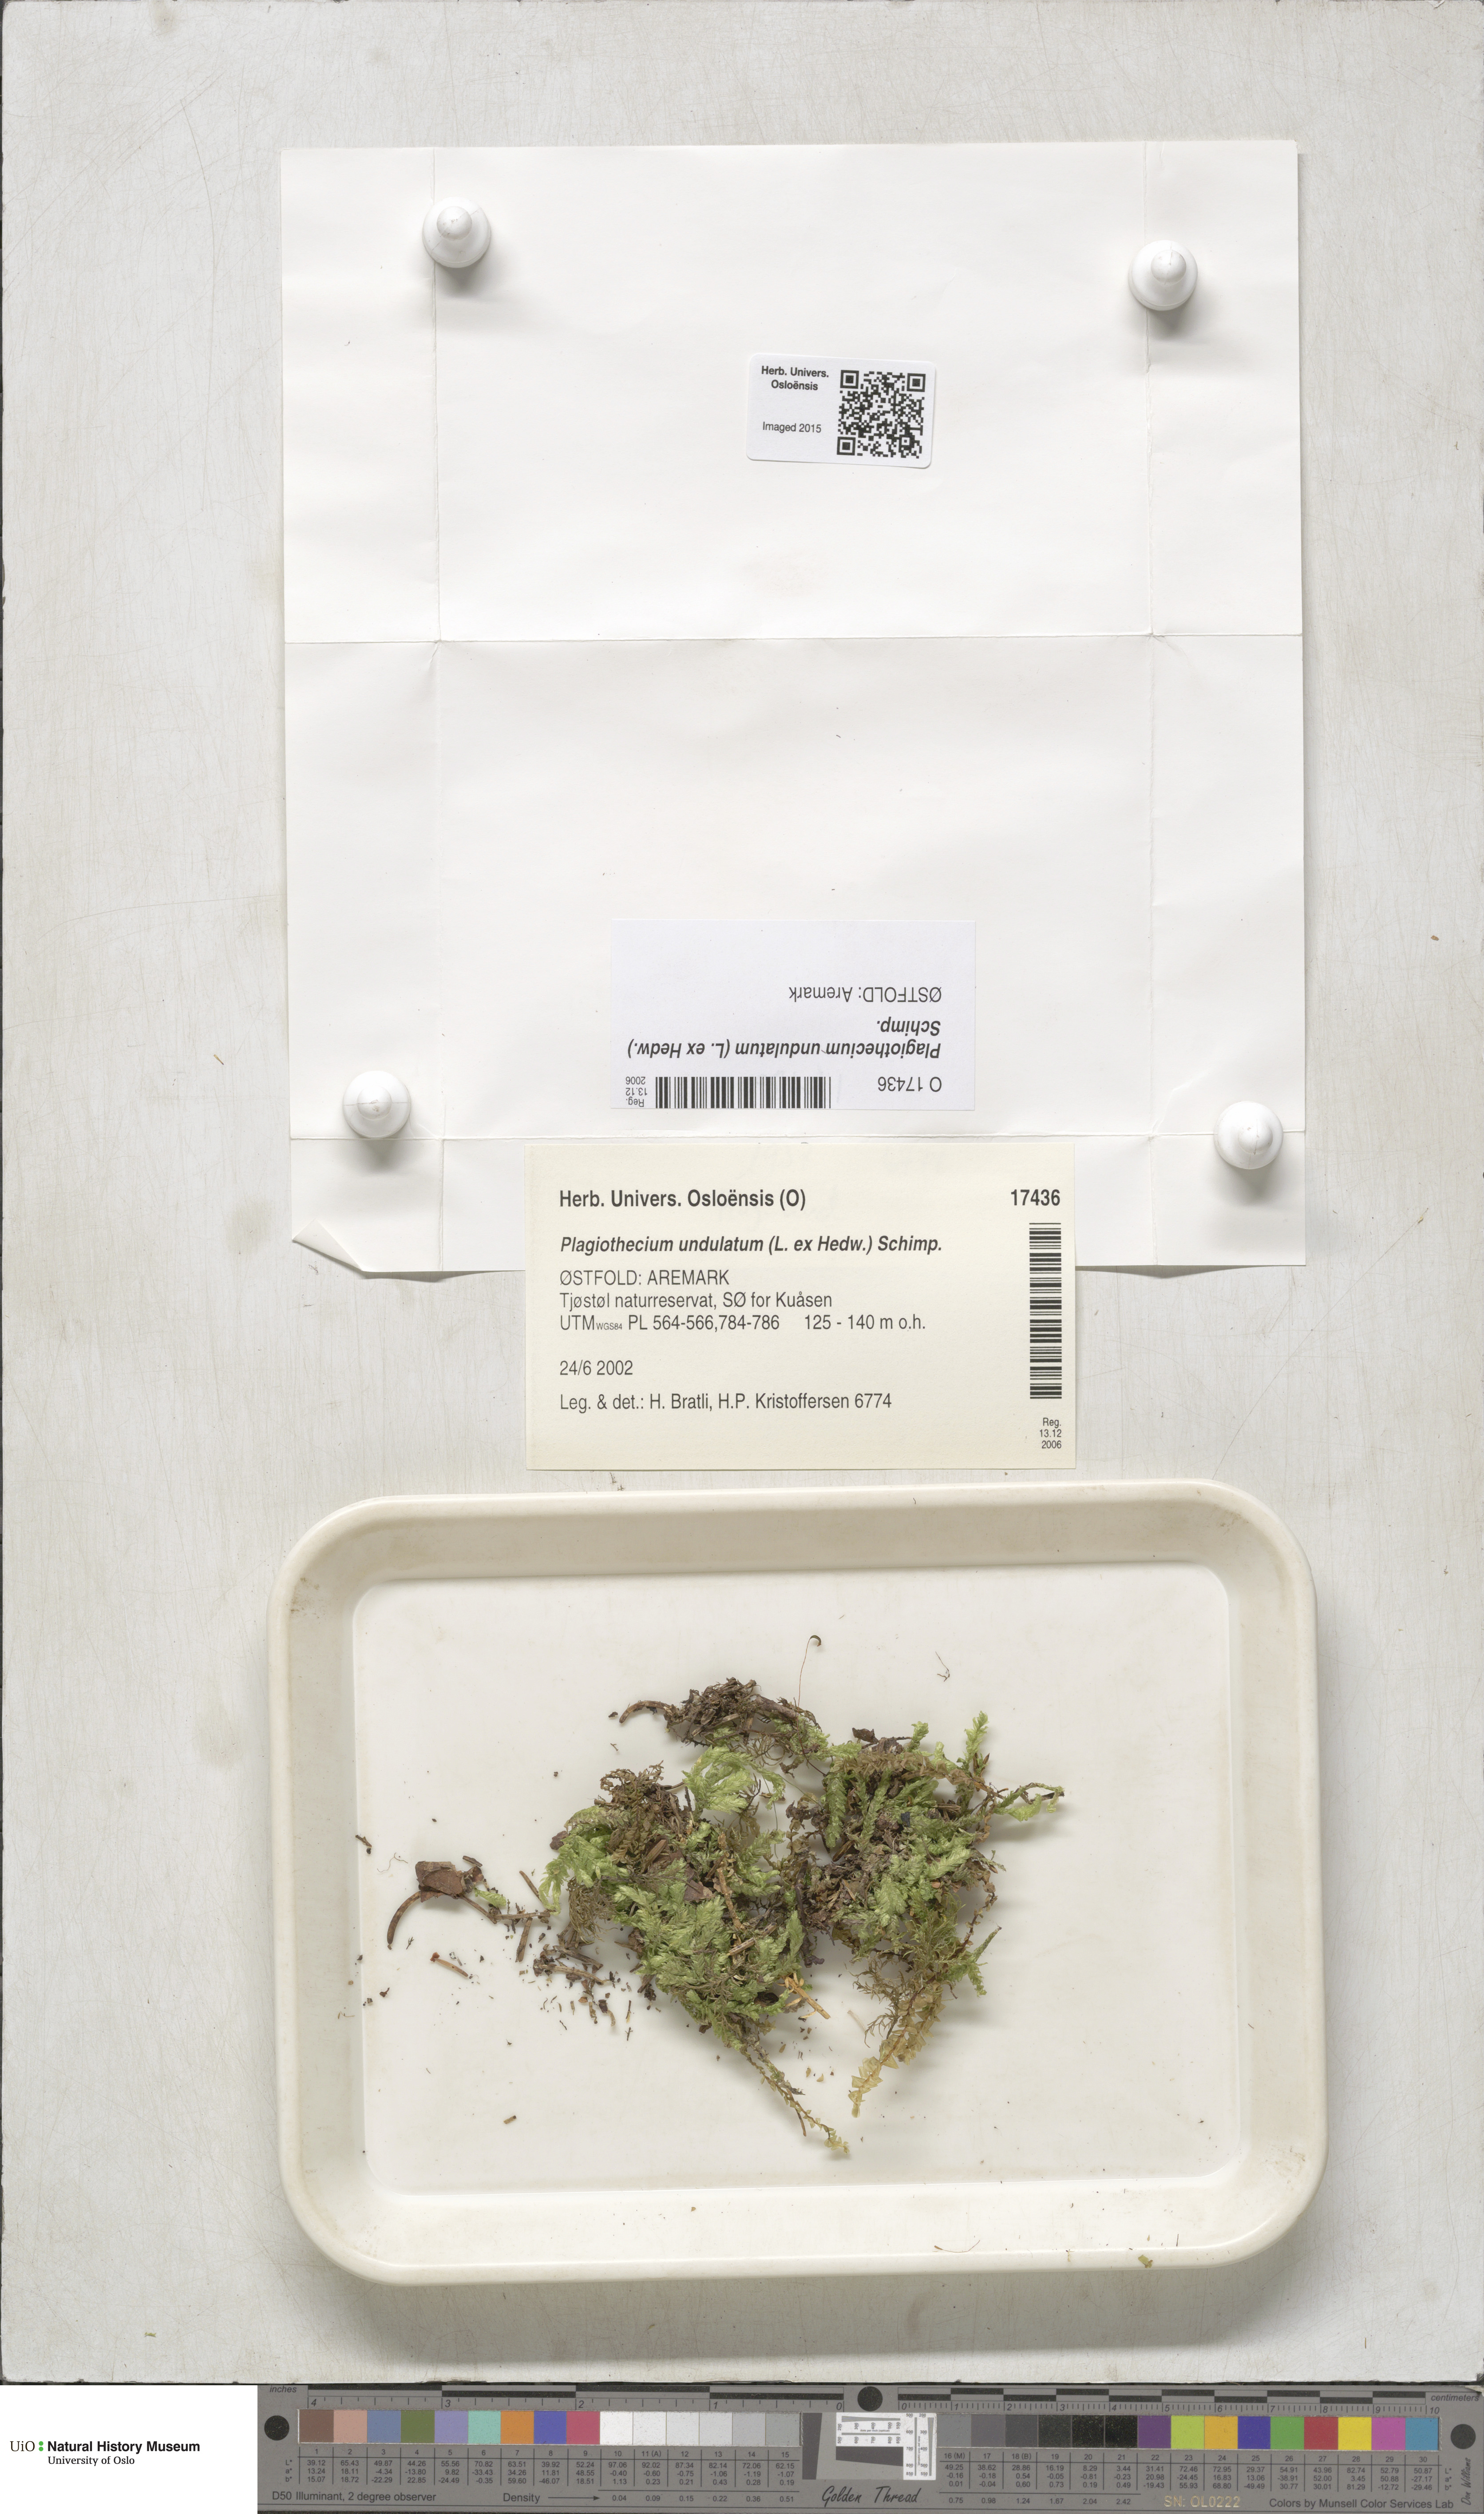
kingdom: Plantae
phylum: Bryophyta
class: Bryopsida
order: Hypnales
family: Plagiotheciaceae
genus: Plagiothecium
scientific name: Plagiothecium undulatum
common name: Waved silk-moss
